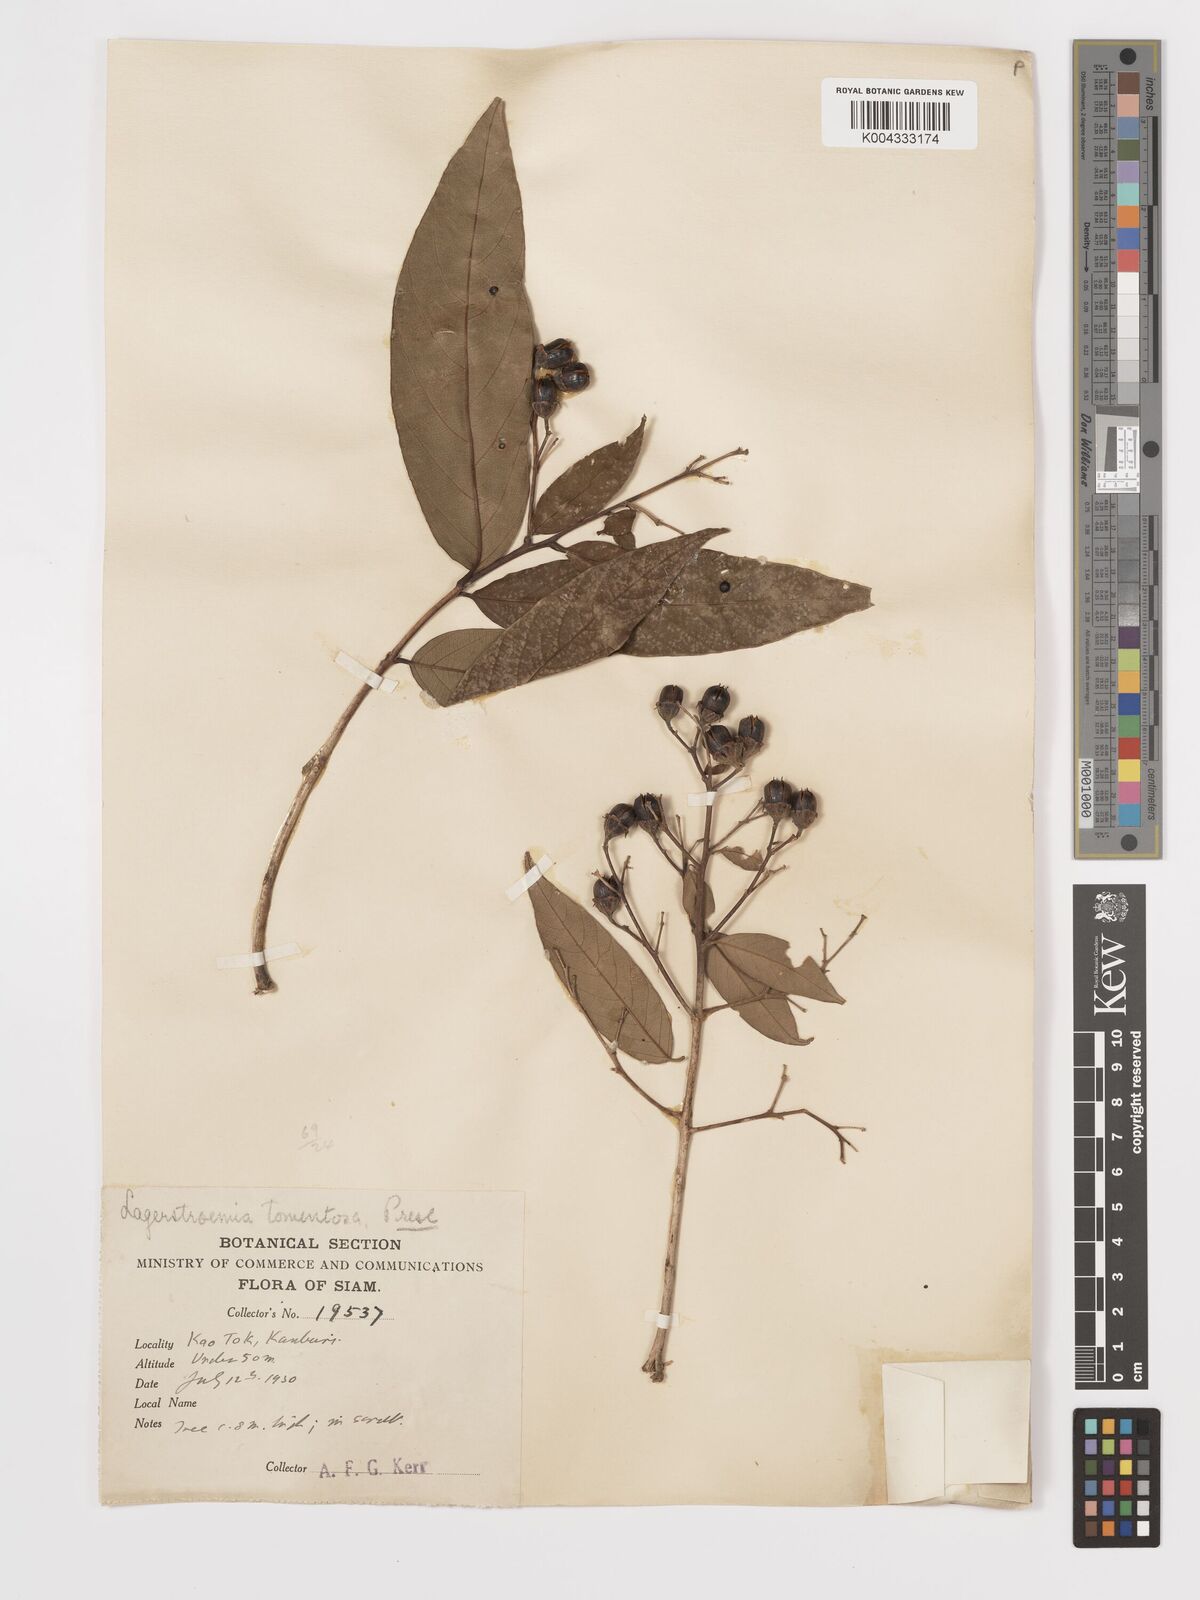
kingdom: Plantae
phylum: Tracheophyta
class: Magnoliopsida
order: Myrtales
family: Lythraceae
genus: Lagerstroemia
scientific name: Lagerstroemia tomentosa
